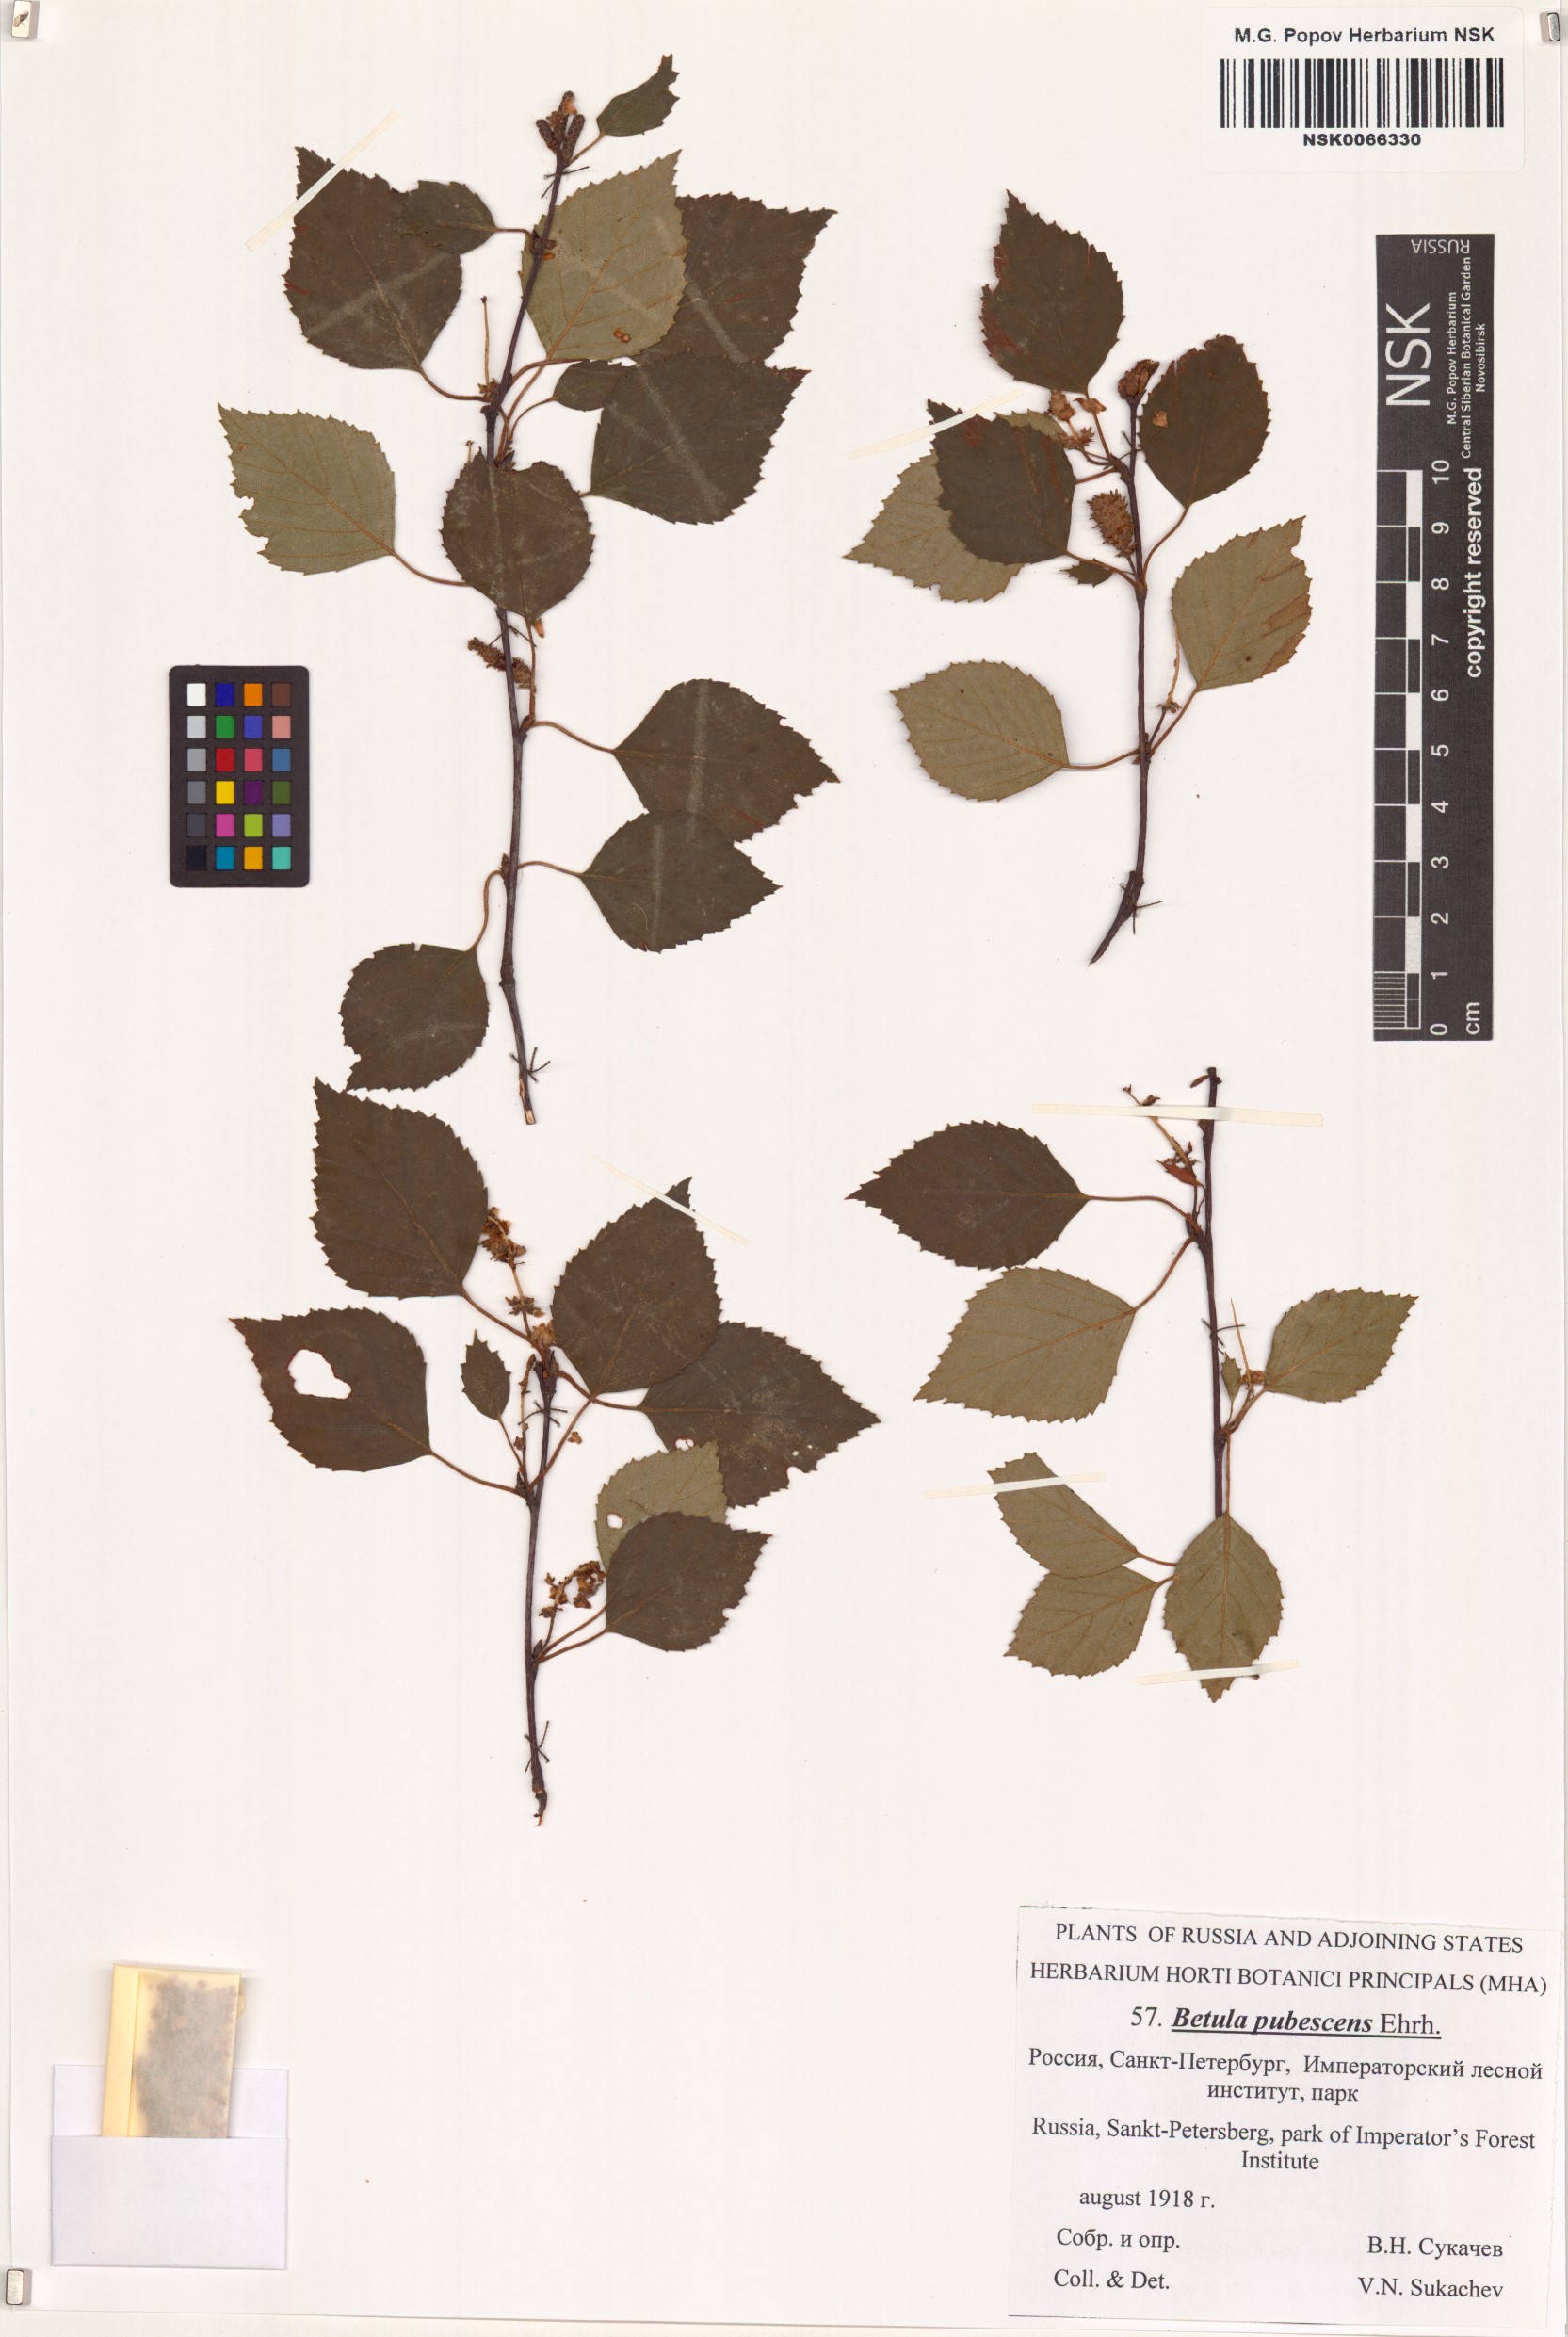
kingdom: Plantae
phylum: Tracheophyta
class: Magnoliopsida
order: Fagales
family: Betulaceae
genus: Betula
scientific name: Betula pubescens
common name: Downy birch
